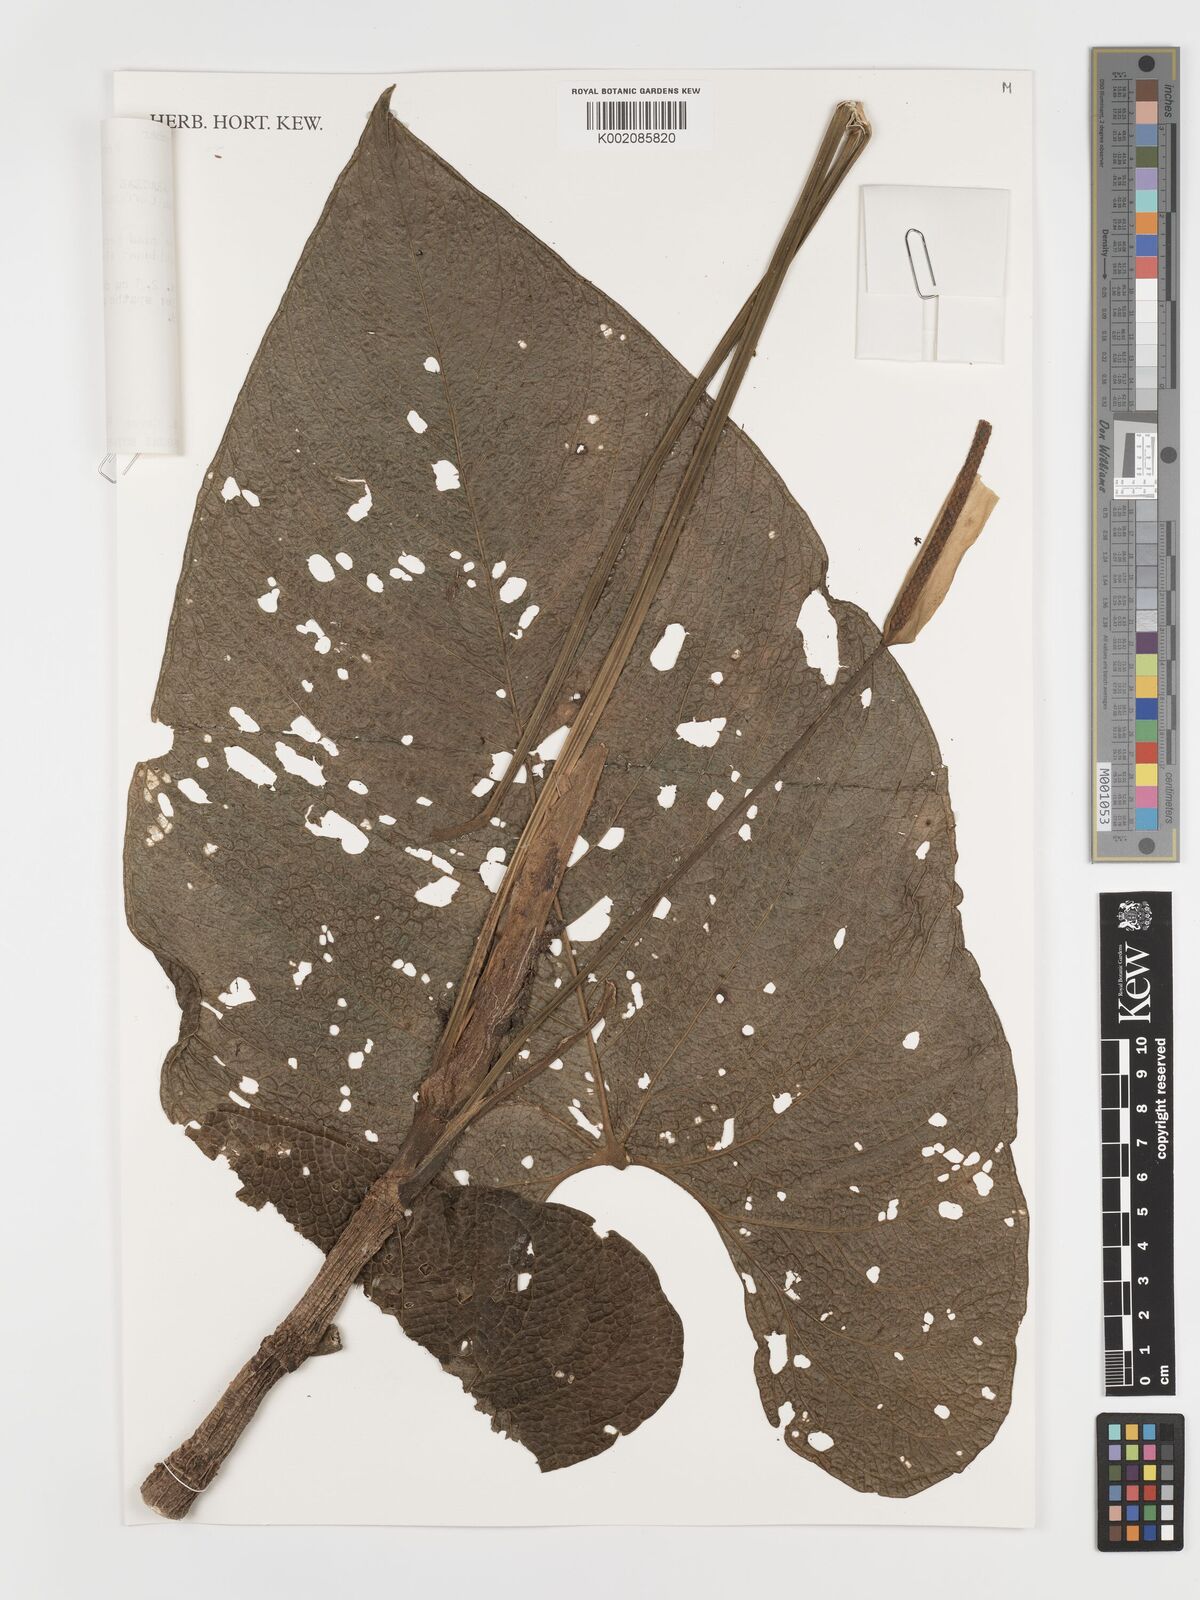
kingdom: Plantae
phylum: Tracheophyta
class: Liliopsida
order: Alismatales
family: Araceae
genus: Anthurium
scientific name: Anthurium corrugatum
